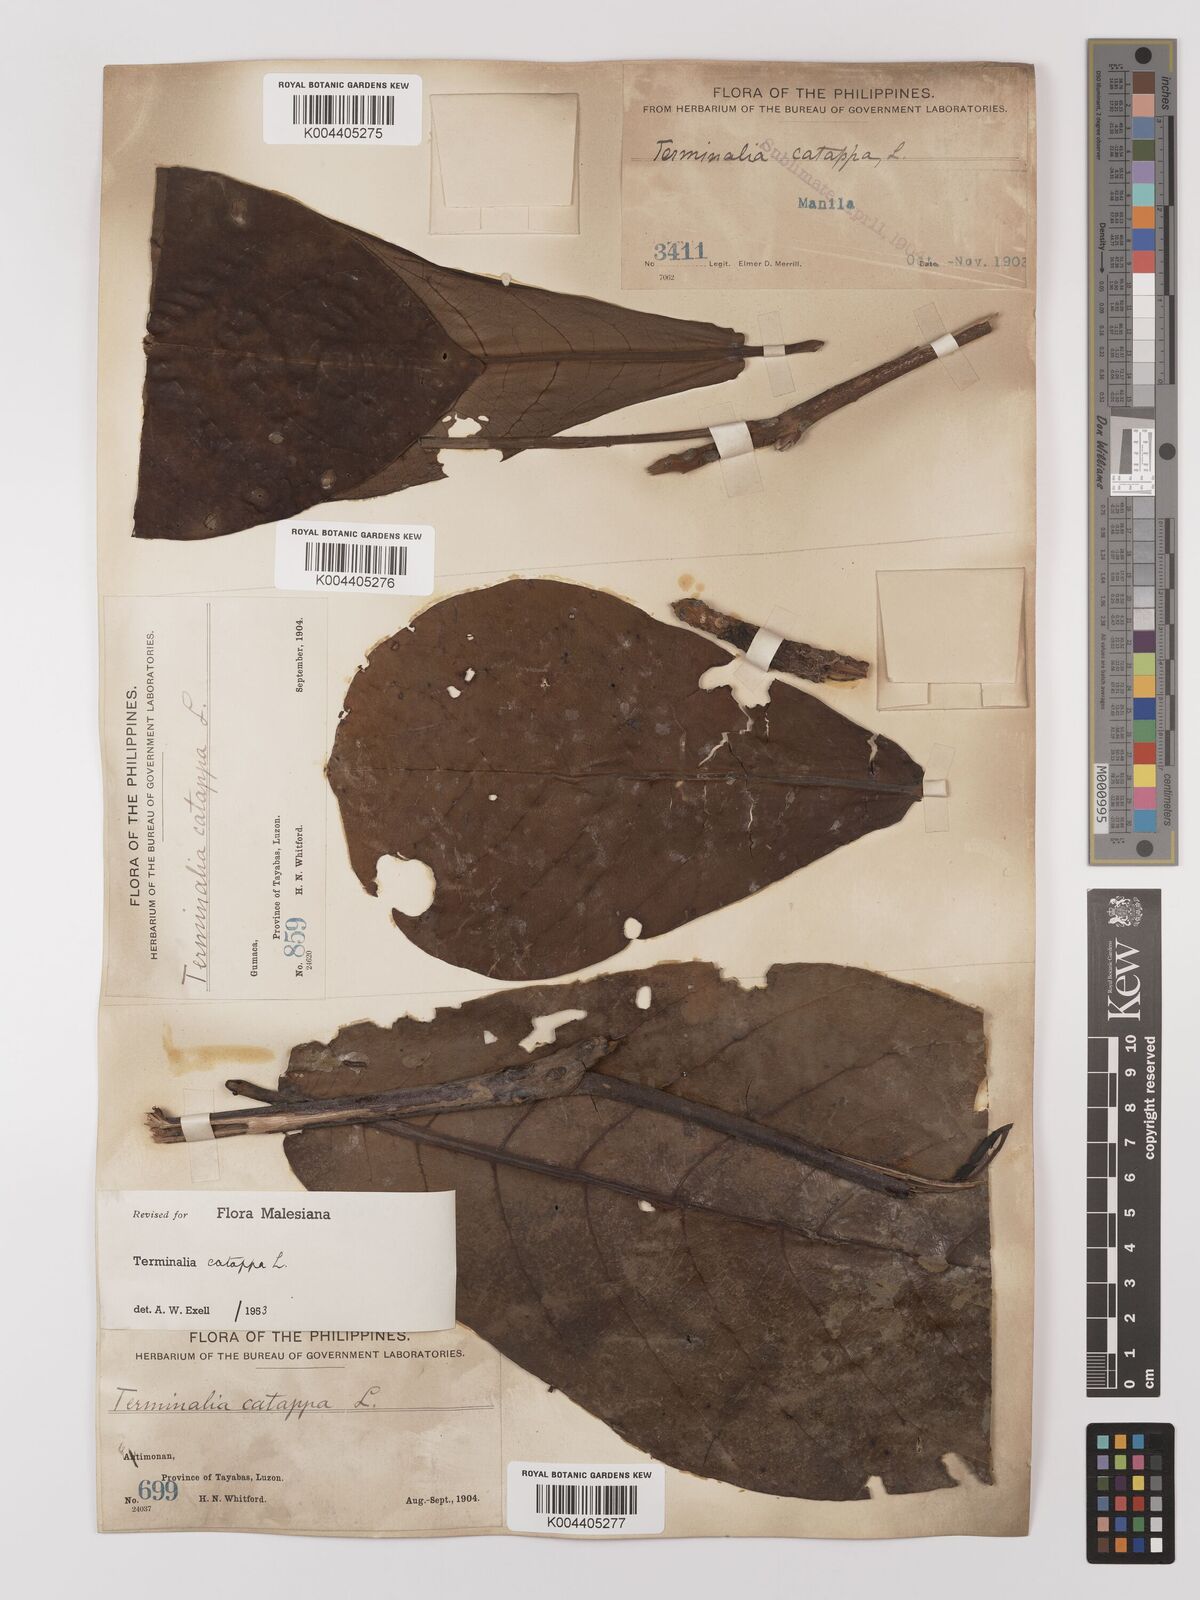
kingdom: Plantae
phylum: Tracheophyta
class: Magnoliopsida
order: Myrtales
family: Combretaceae
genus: Terminalia
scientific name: Terminalia catappa
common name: Tropical almond
